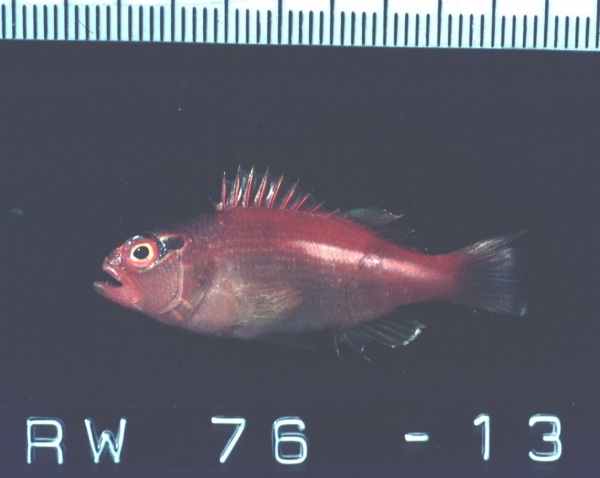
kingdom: Animalia
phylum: Chordata
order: Perciformes
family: Cirrhitidae
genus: Paracirrhites
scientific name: Paracirrhites arcatus
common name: Arc-eye hawkfish
